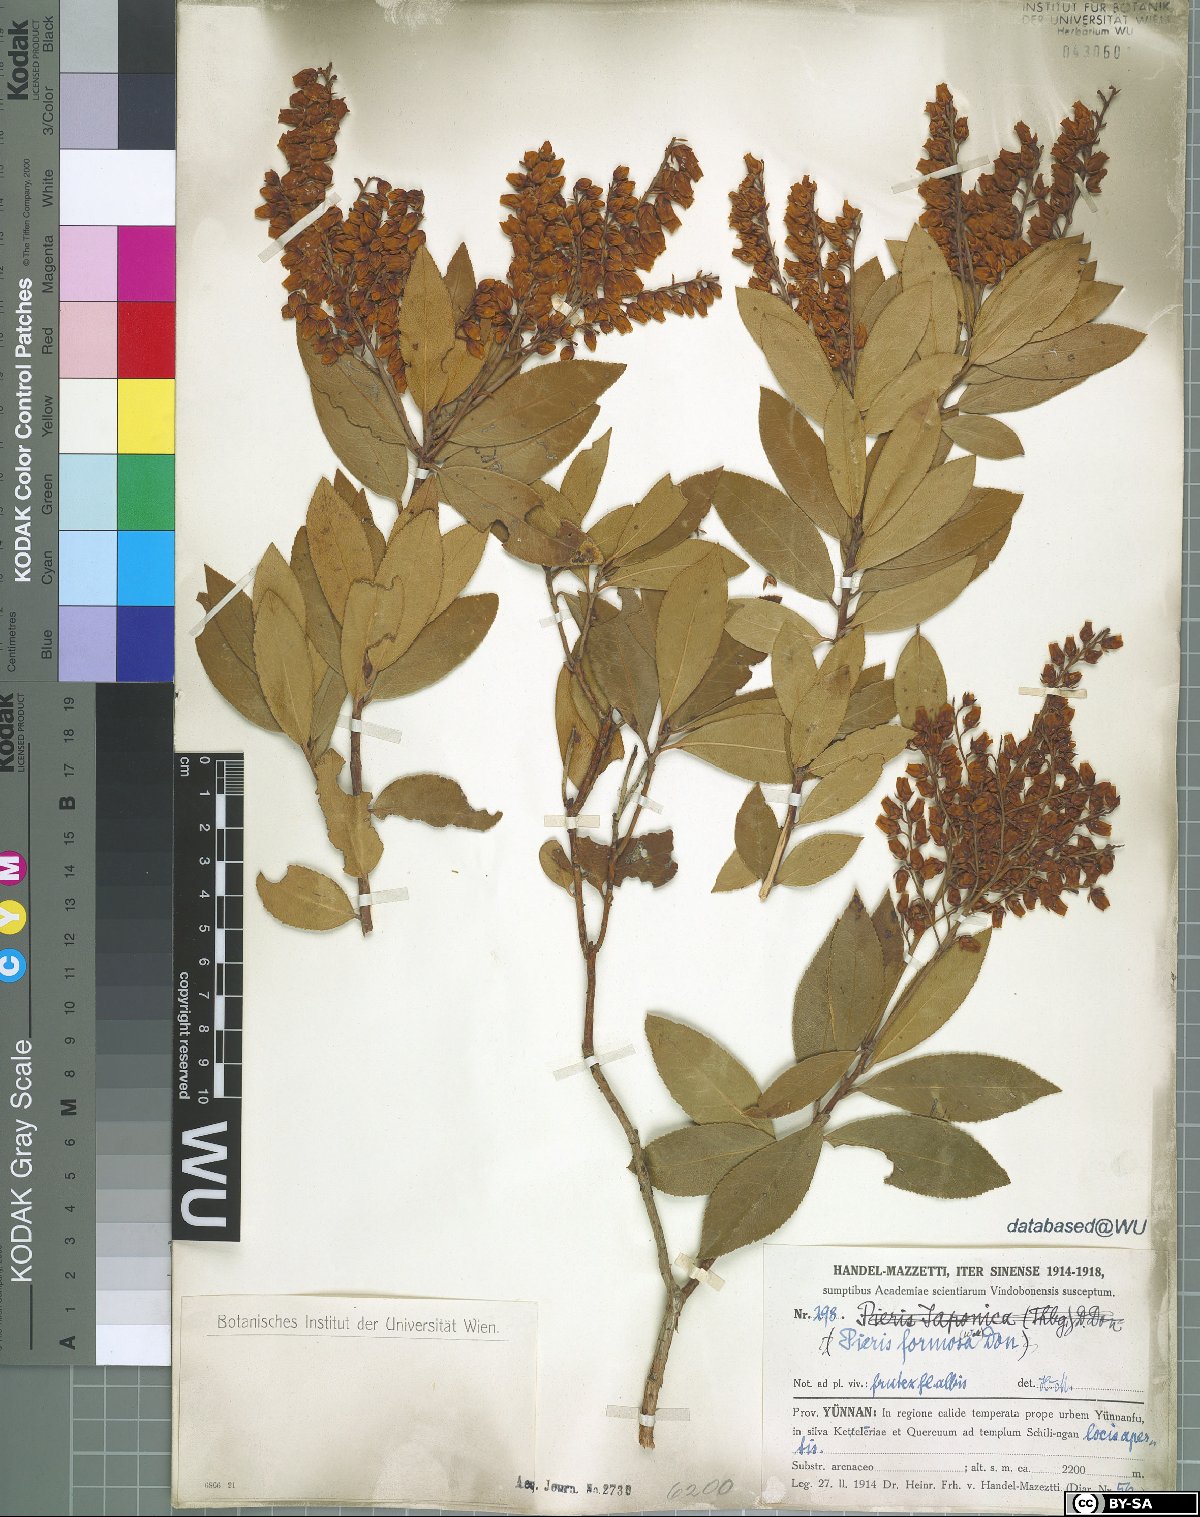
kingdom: Plantae
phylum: Tracheophyta
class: Magnoliopsida
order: Ericales
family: Ericaceae
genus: Pieris
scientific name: Pieris formosa
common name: Formosan pieris
